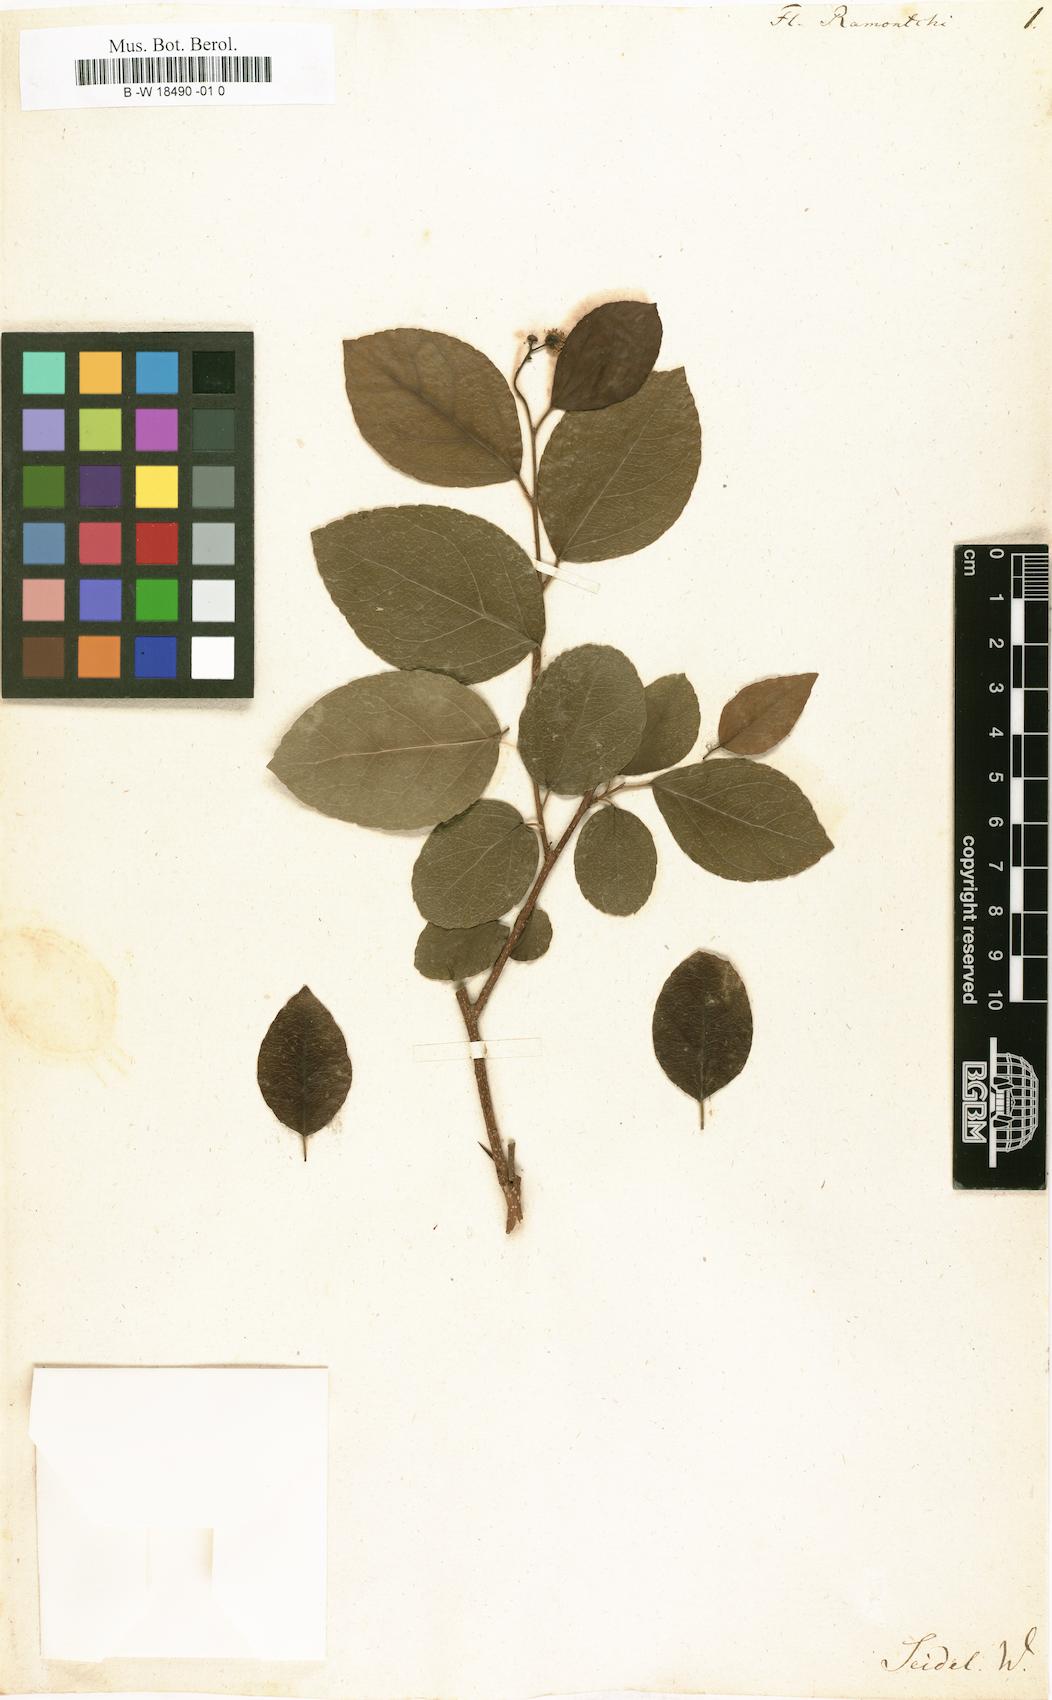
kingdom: Plantae
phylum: Tracheophyta
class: Magnoliopsida
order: Malpighiales
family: Salicaceae
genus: Flacourtia
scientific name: Flacourtia indica
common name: Governor's plum
